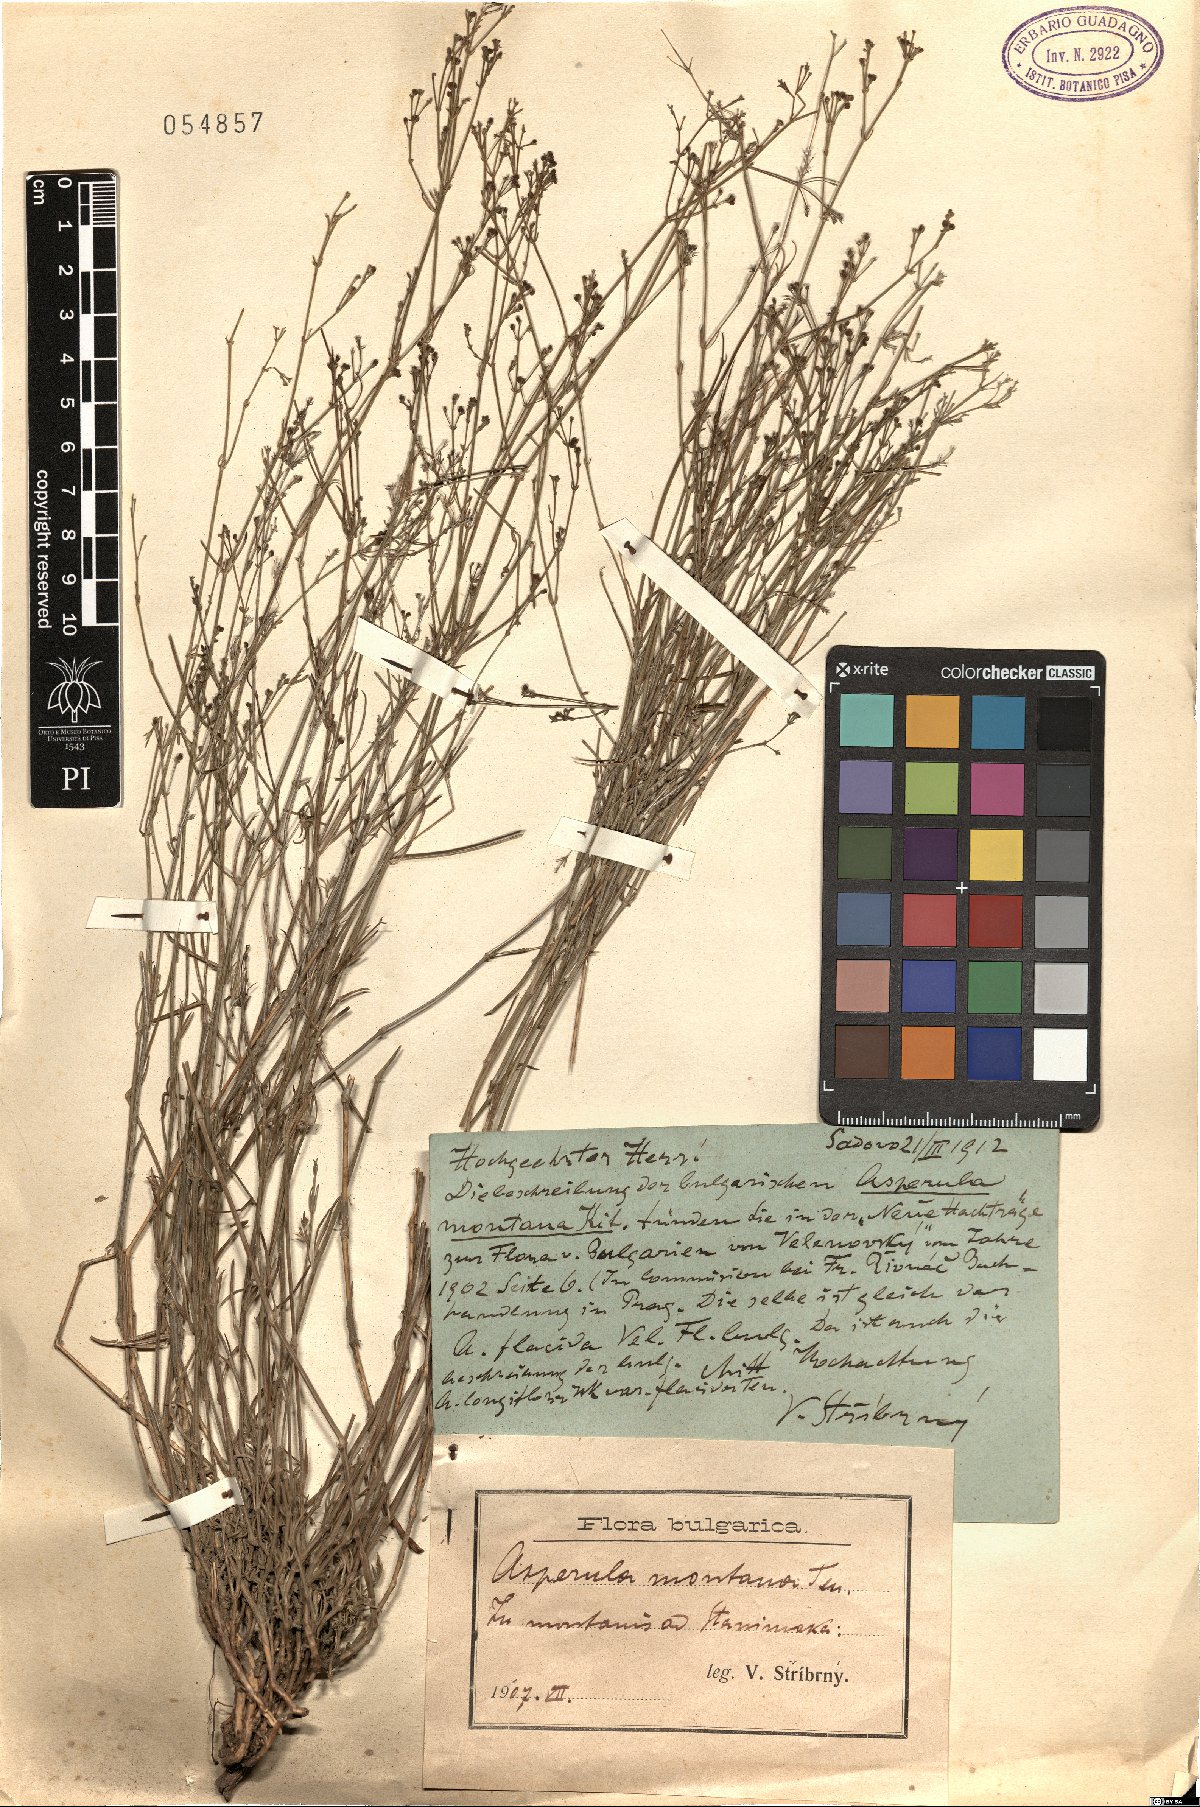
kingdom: Plantae
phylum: Tracheophyta
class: Magnoliopsida
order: Gentianales
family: Rubiaceae
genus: Cynanchica
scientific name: Cynanchica rumelica
